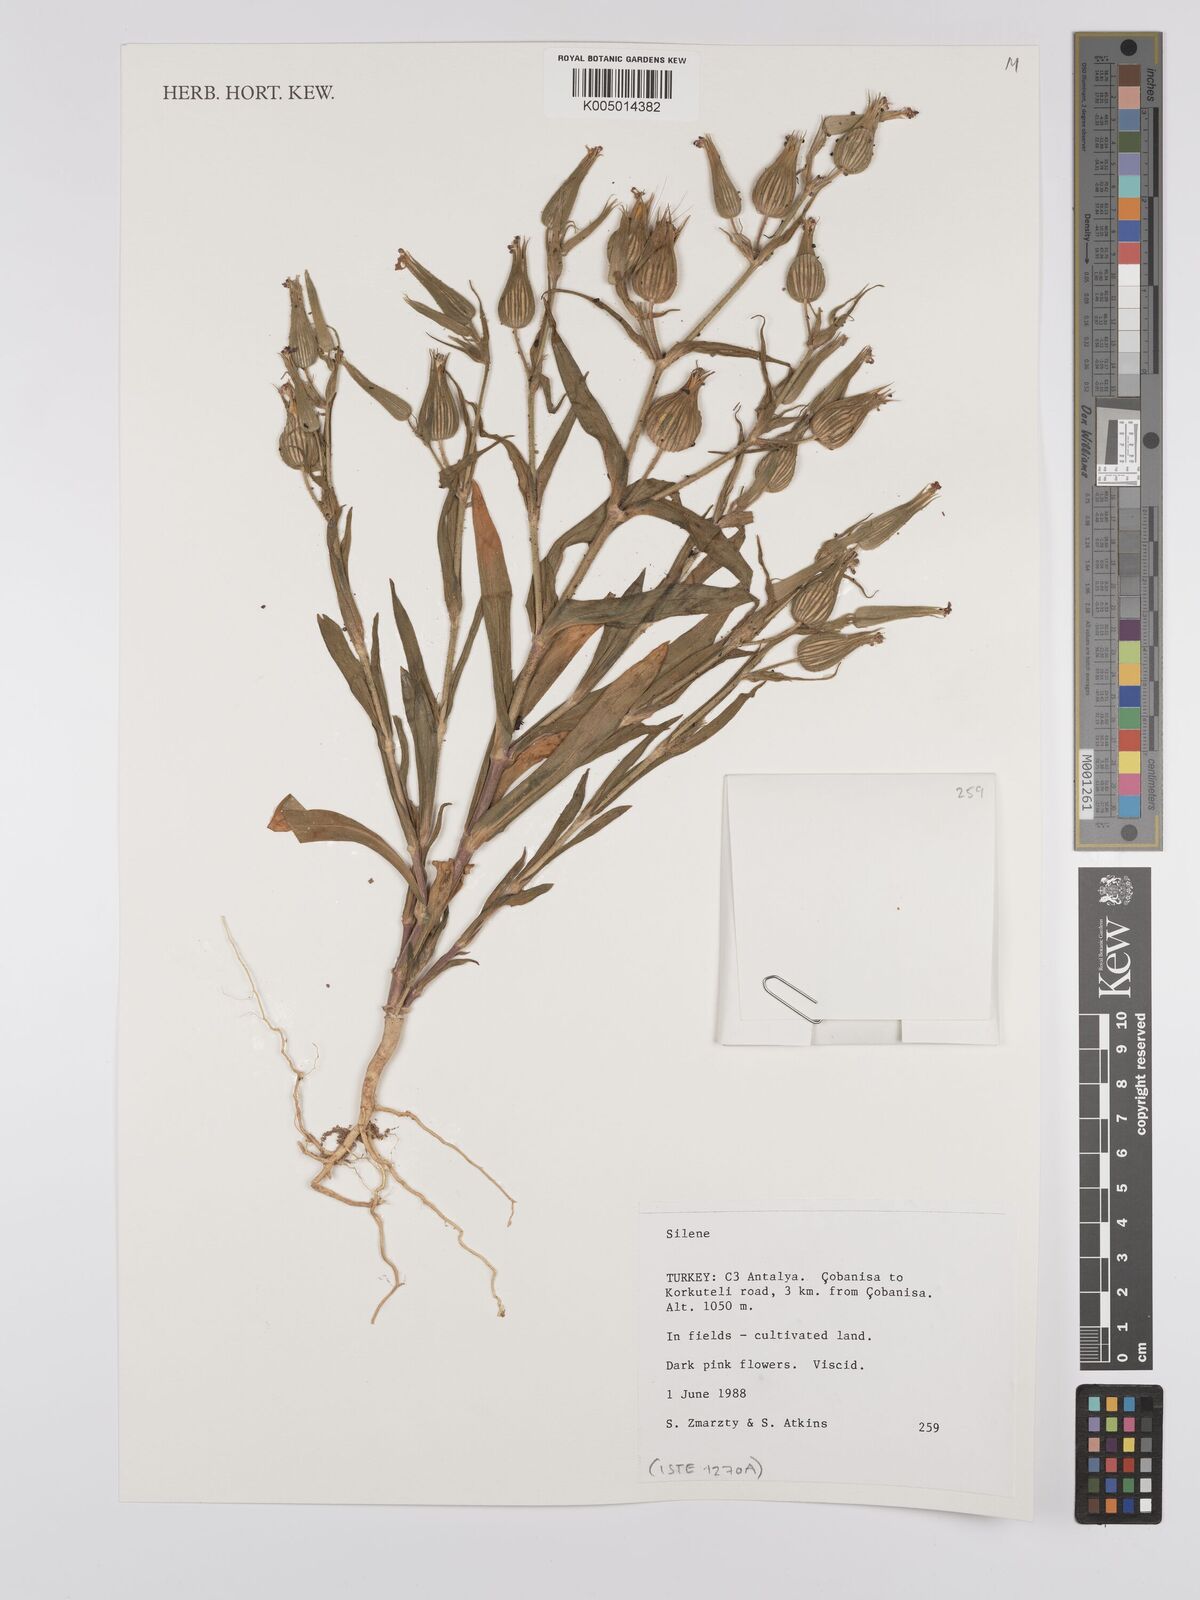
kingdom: Plantae
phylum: Tracheophyta
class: Magnoliopsida
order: Caryophyllales
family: Caryophyllaceae
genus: Silene
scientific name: Silene
